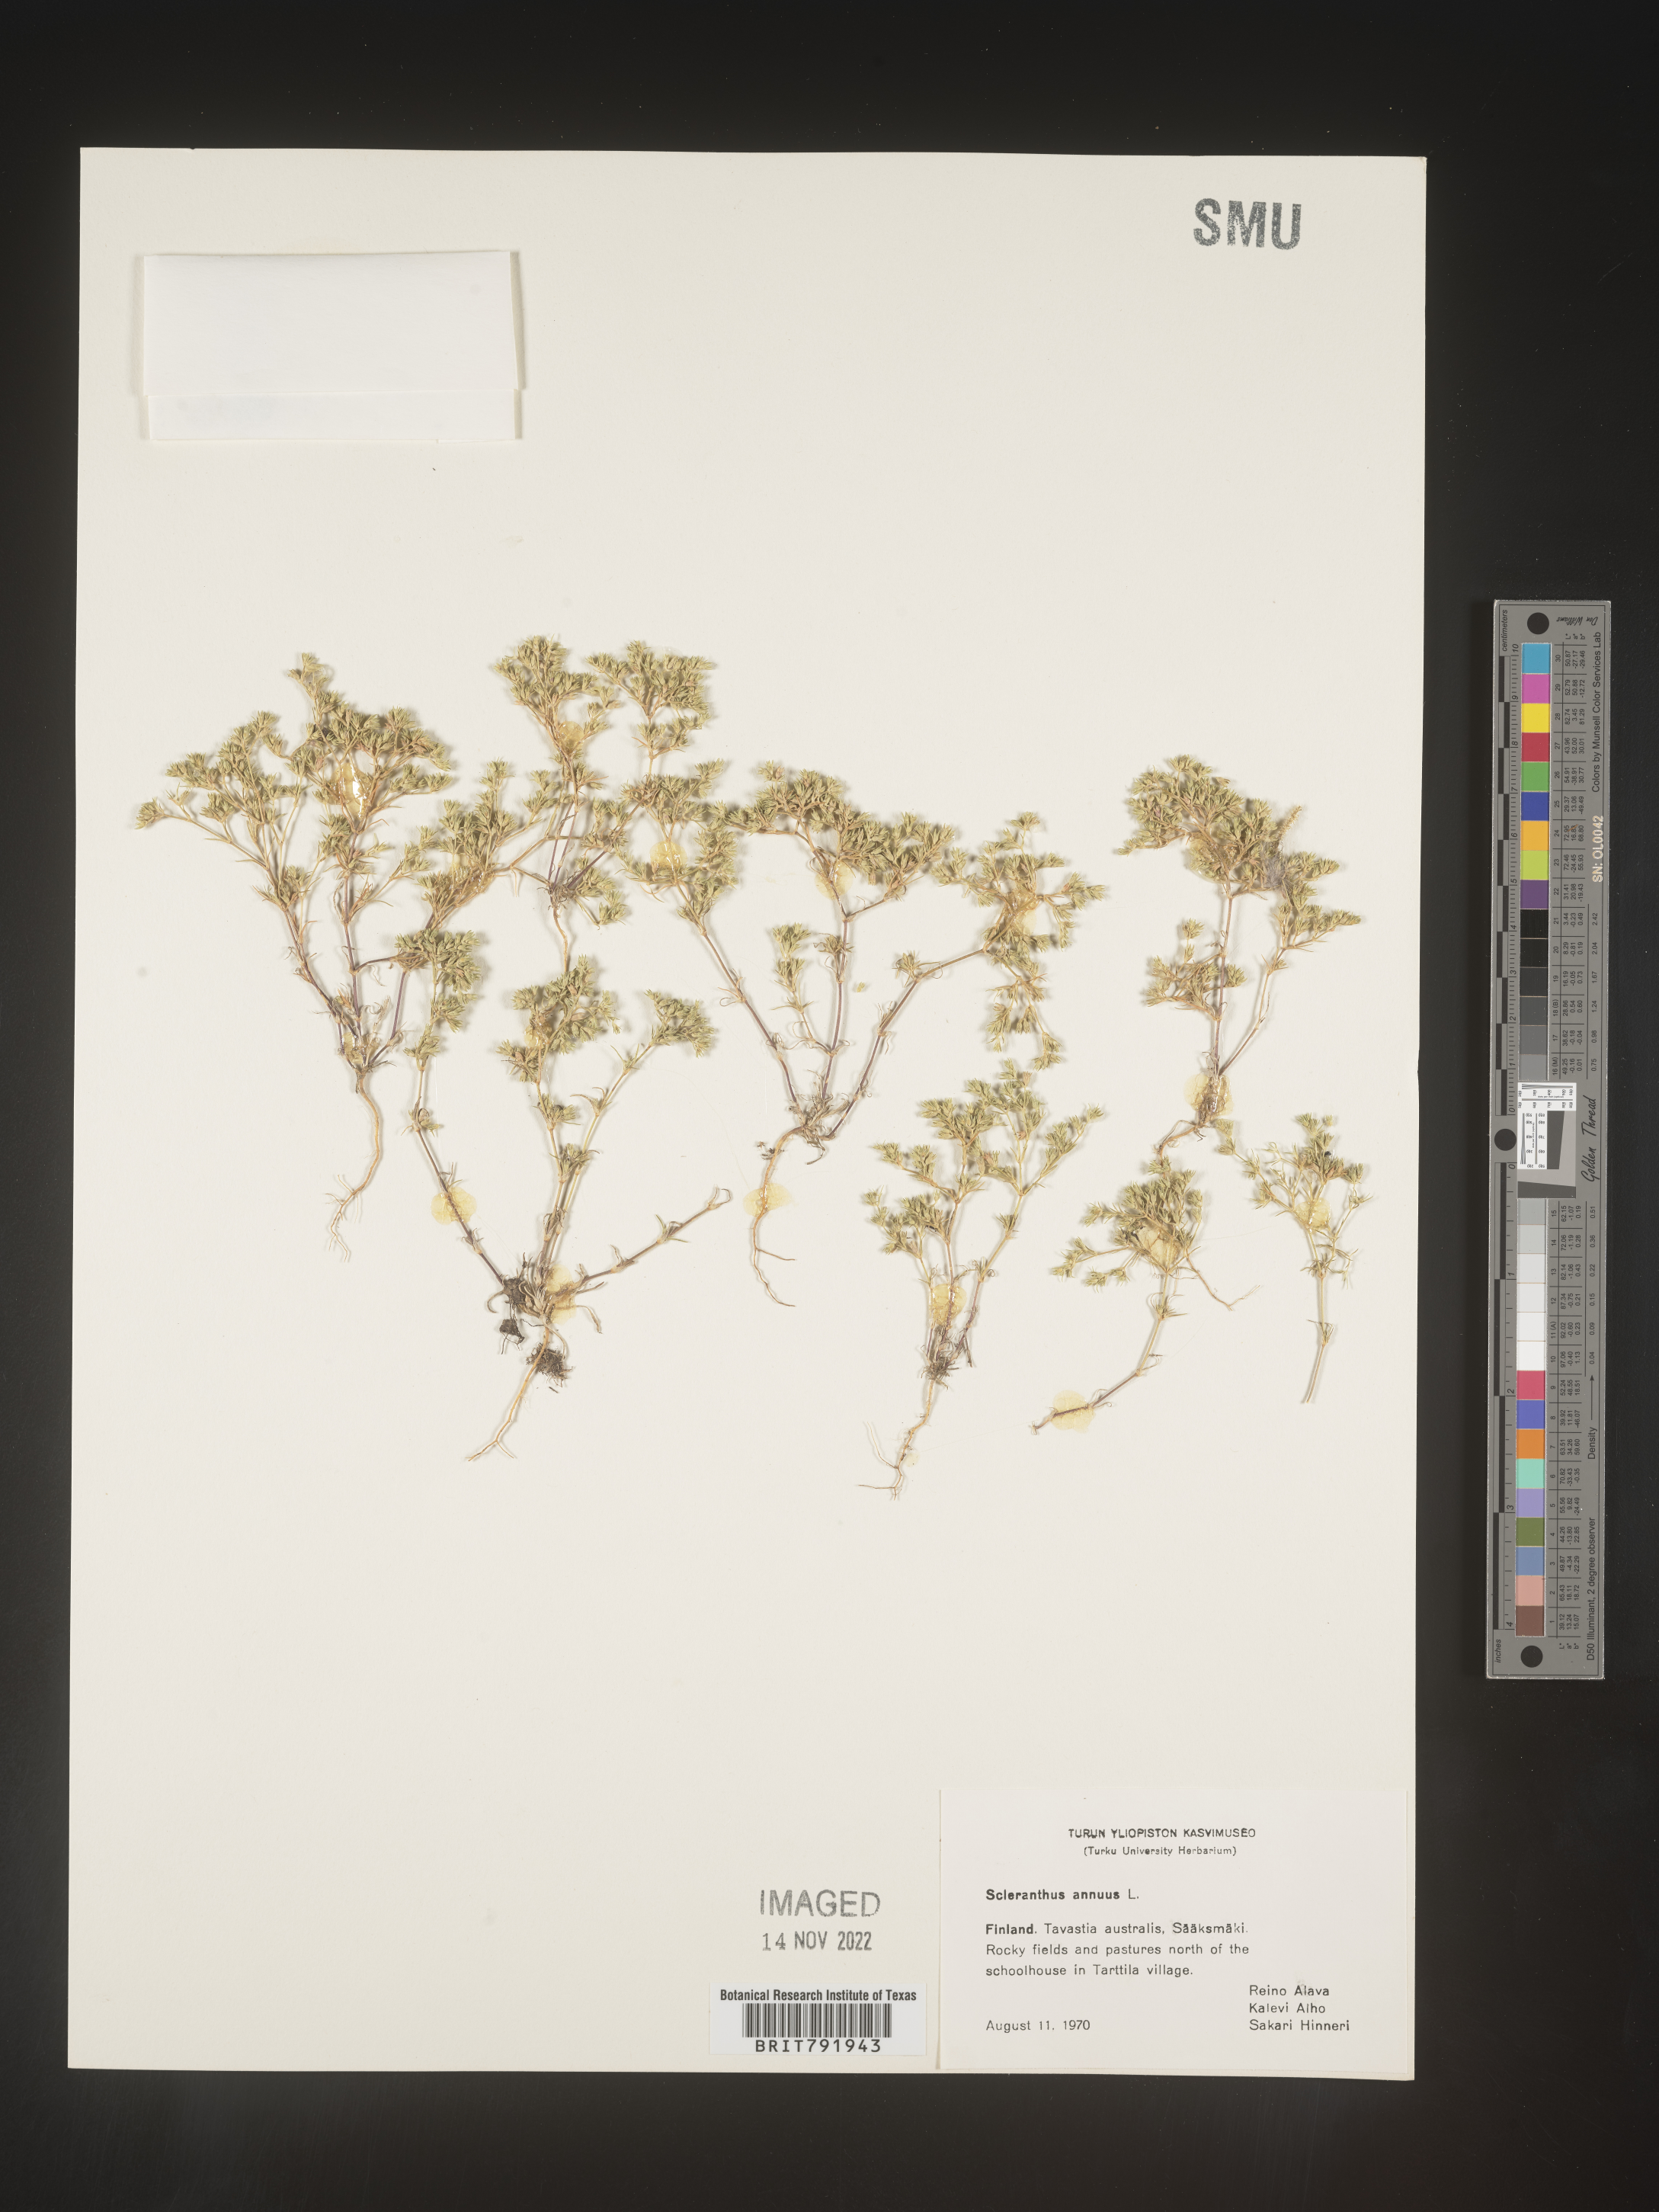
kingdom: Plantae
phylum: Tracheophyta
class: Magnoliopsida
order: Caryophyllales
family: Caryophyllaceae
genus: Scleranthus
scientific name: Scleranthus
